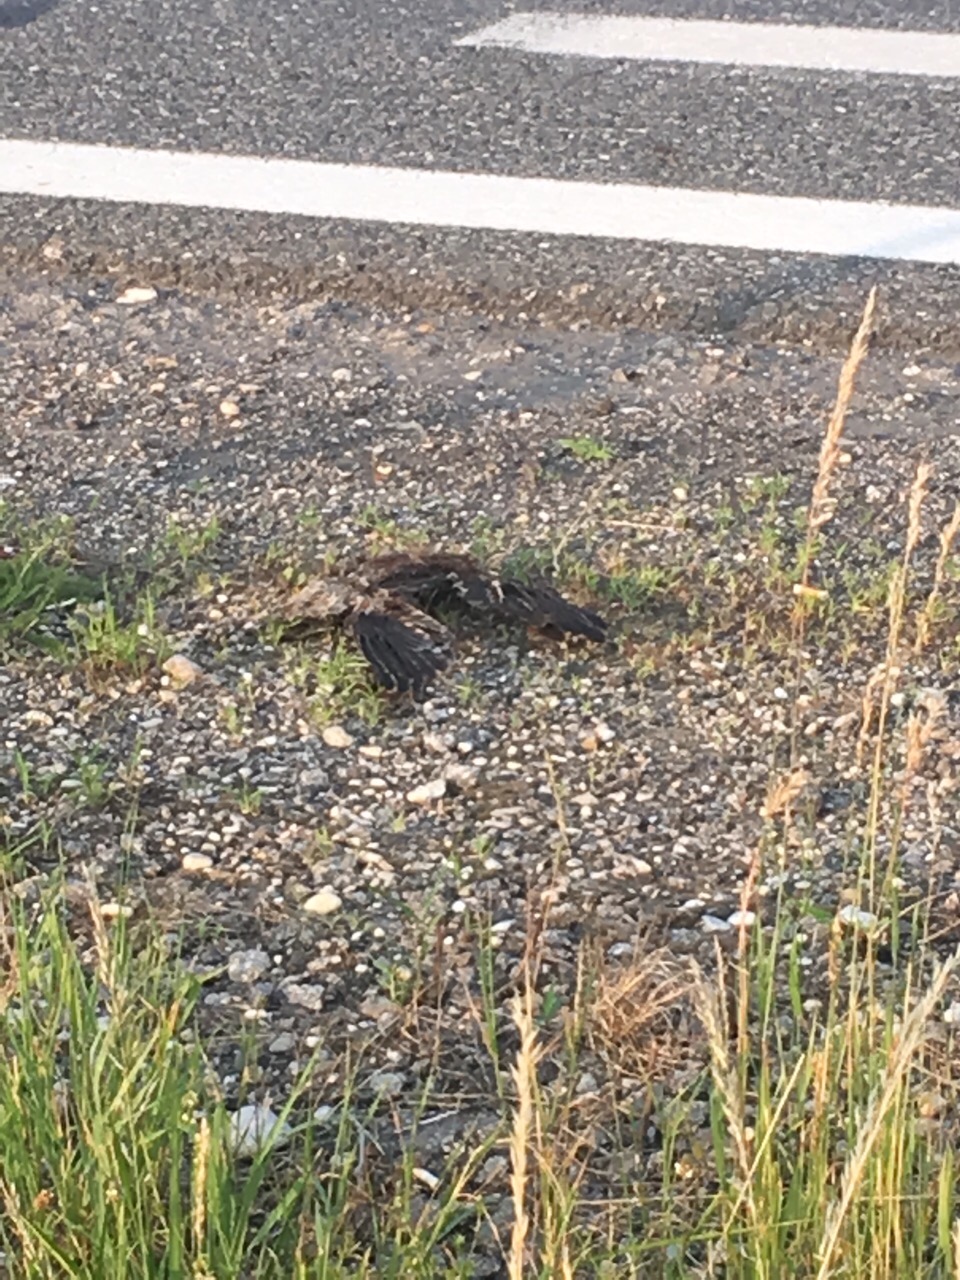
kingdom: Animalia
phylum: Chordata
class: Aves
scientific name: Aves
